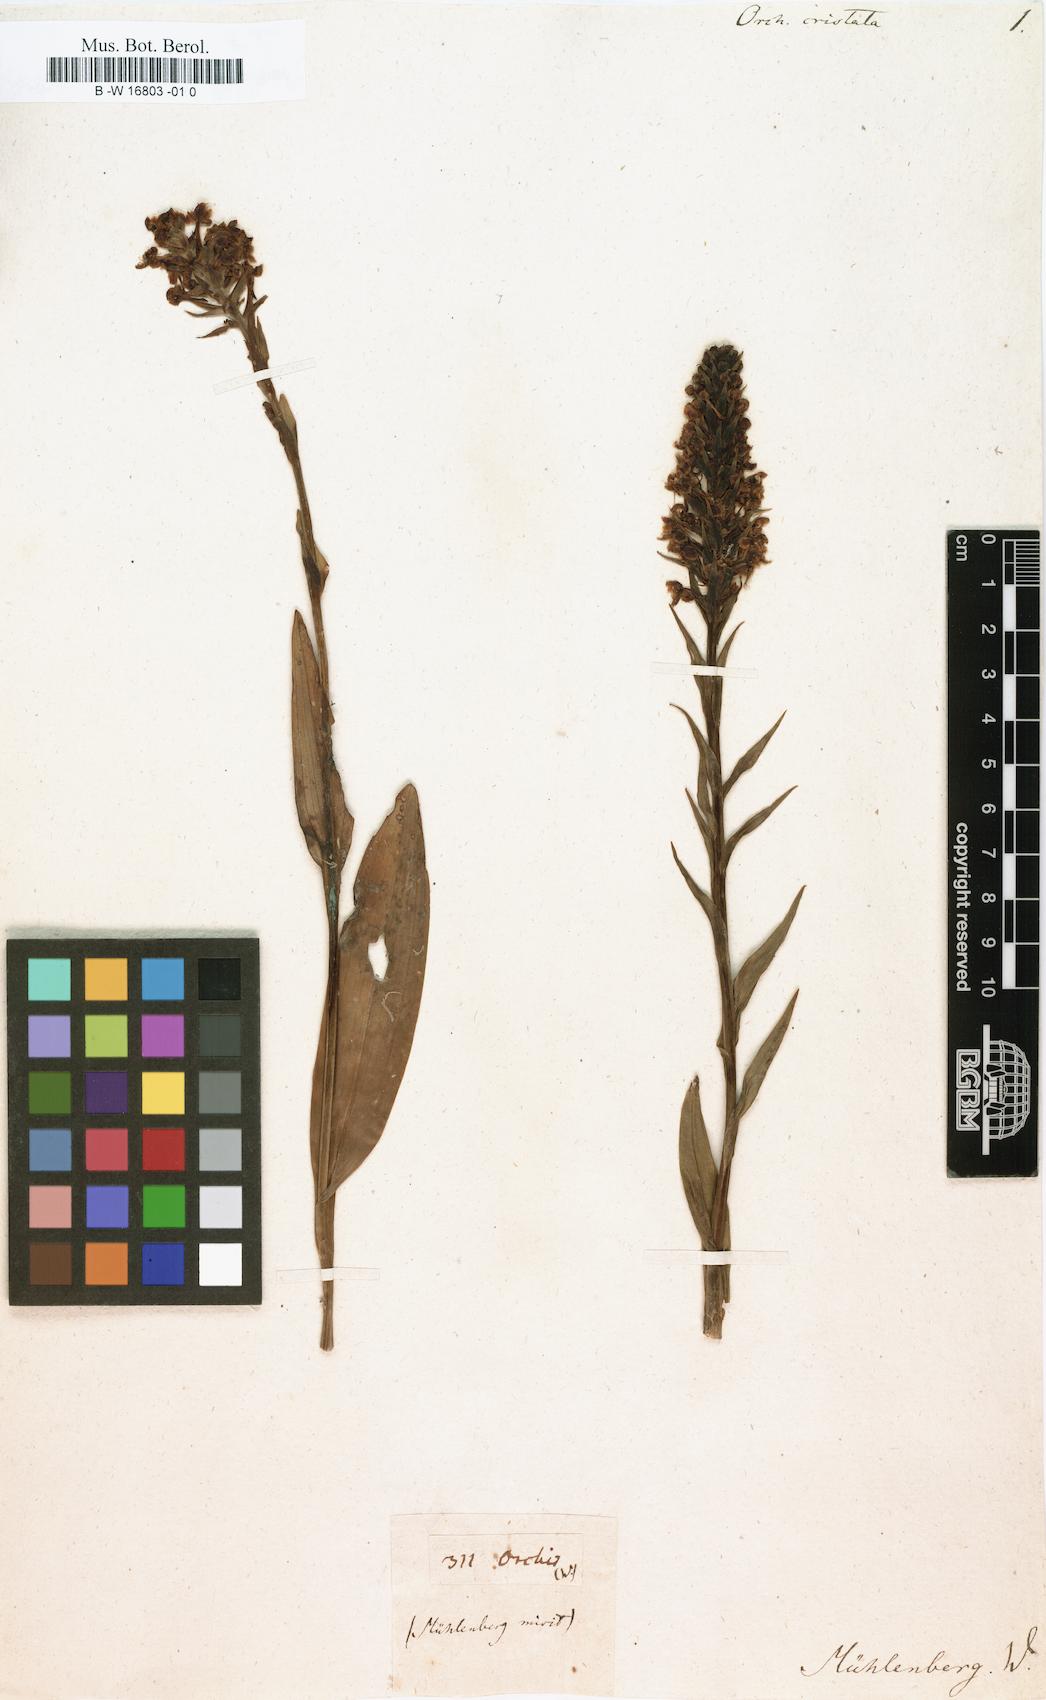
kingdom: Plantae
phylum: Tracheophyta
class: Liliopsida
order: Asparagales
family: Orchidaceae
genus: Platanthera
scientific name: Platanthera cristata
